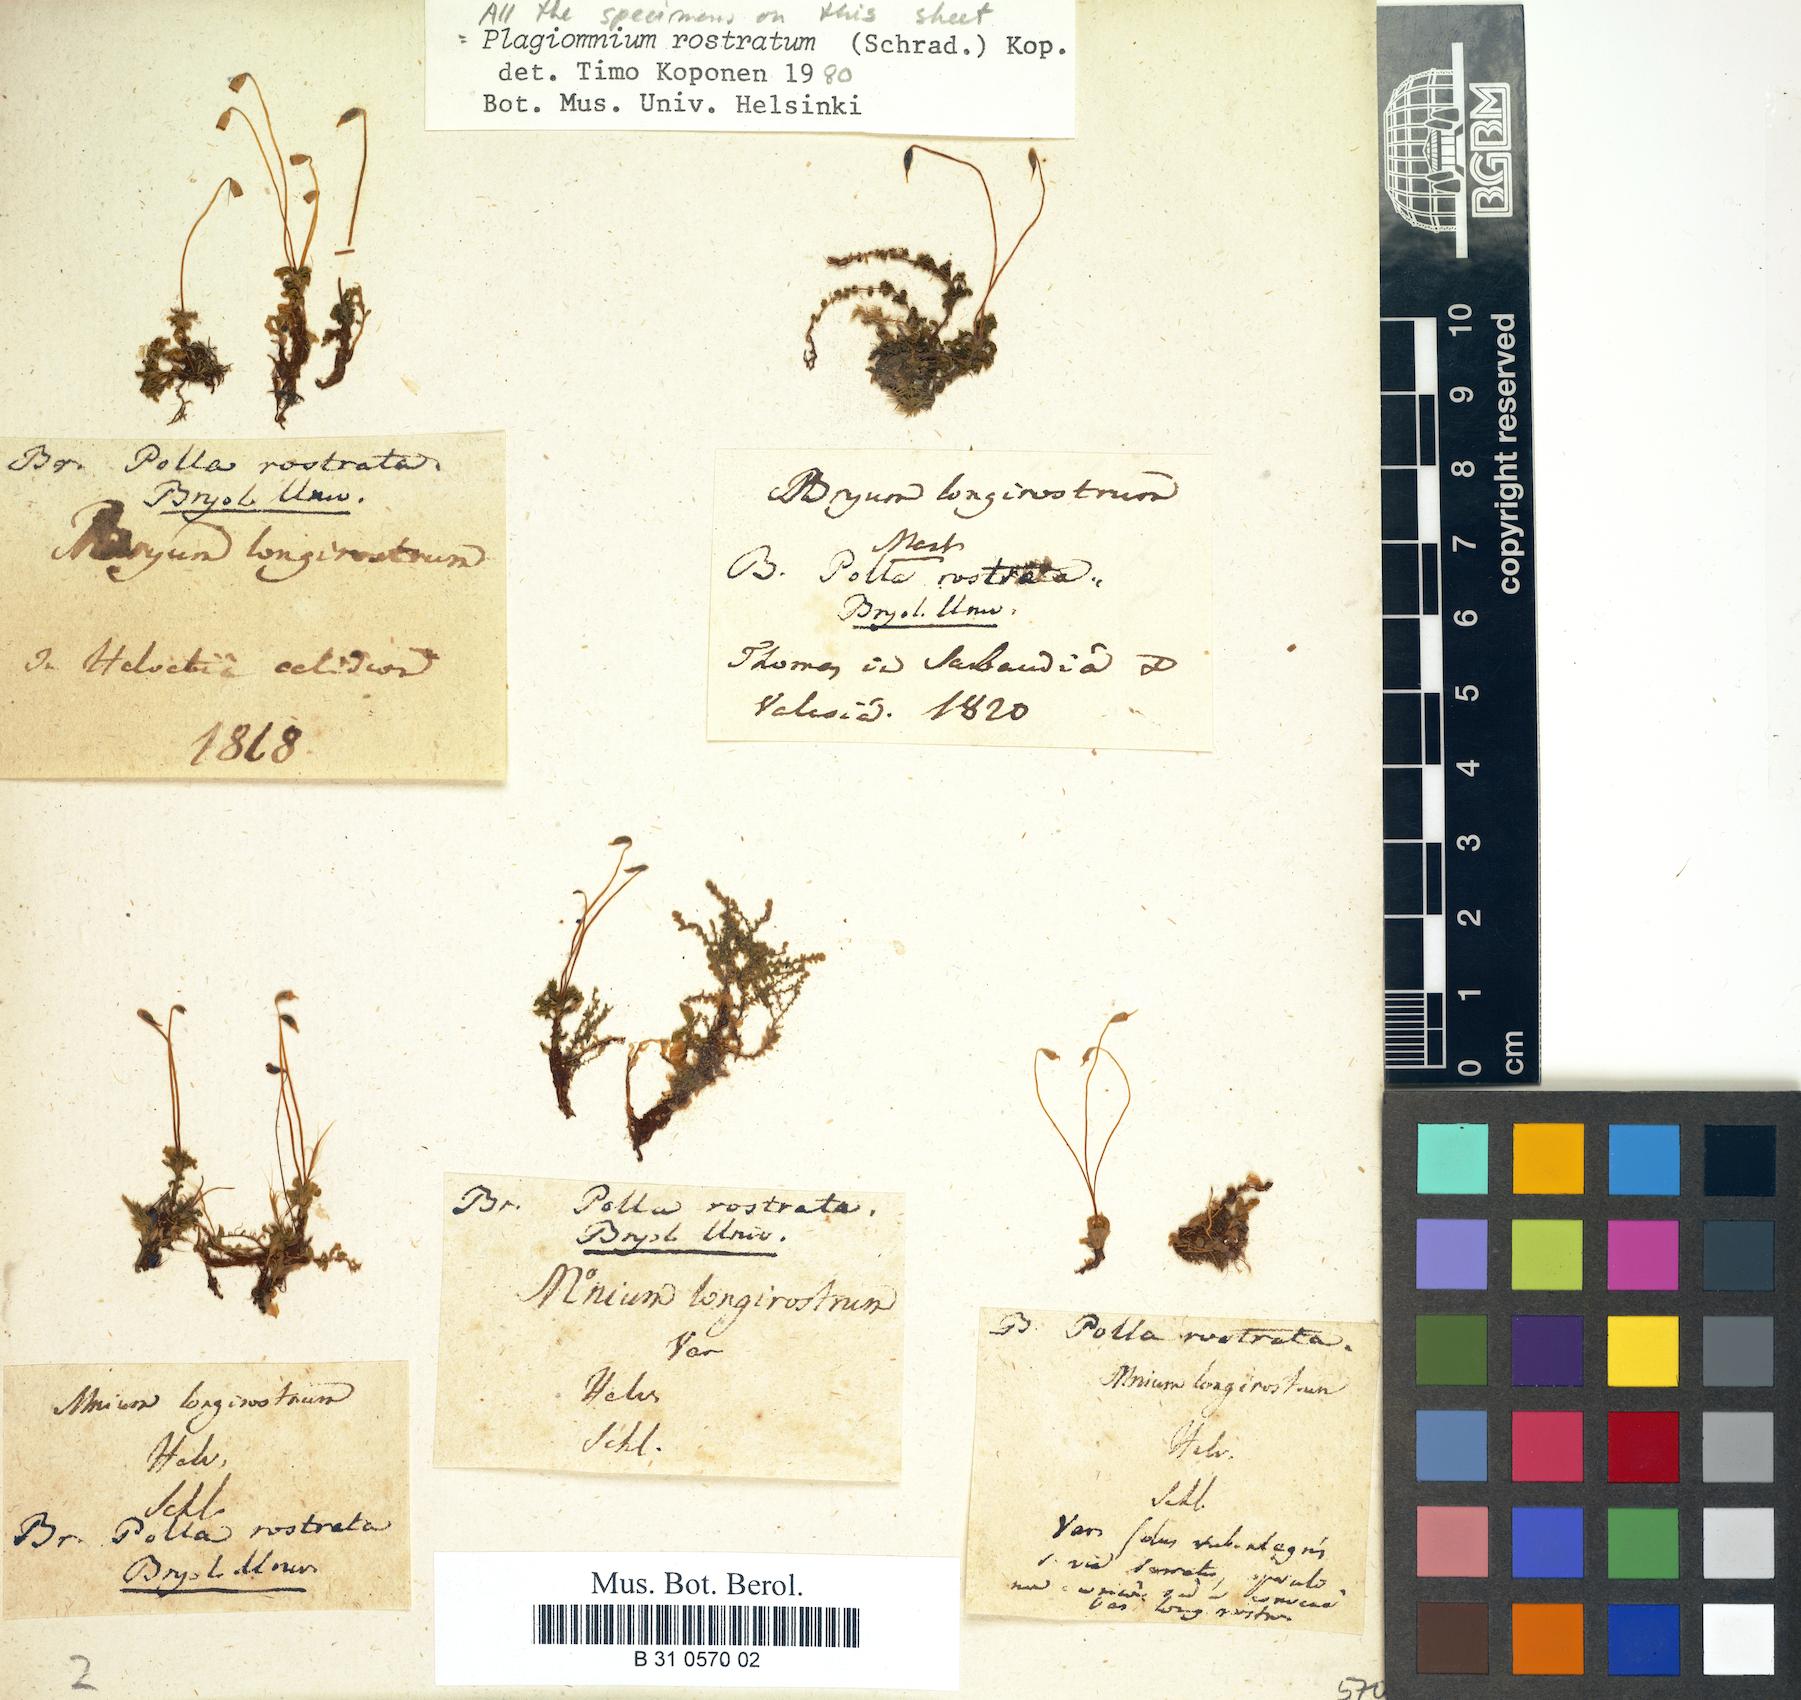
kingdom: Plantae
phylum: Bryophyta
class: Bryopsida
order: Bryales
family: Mniaceae
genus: Plagiomnium
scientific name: Plagiomnium rostratum
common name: Long-beaked leafy moss
